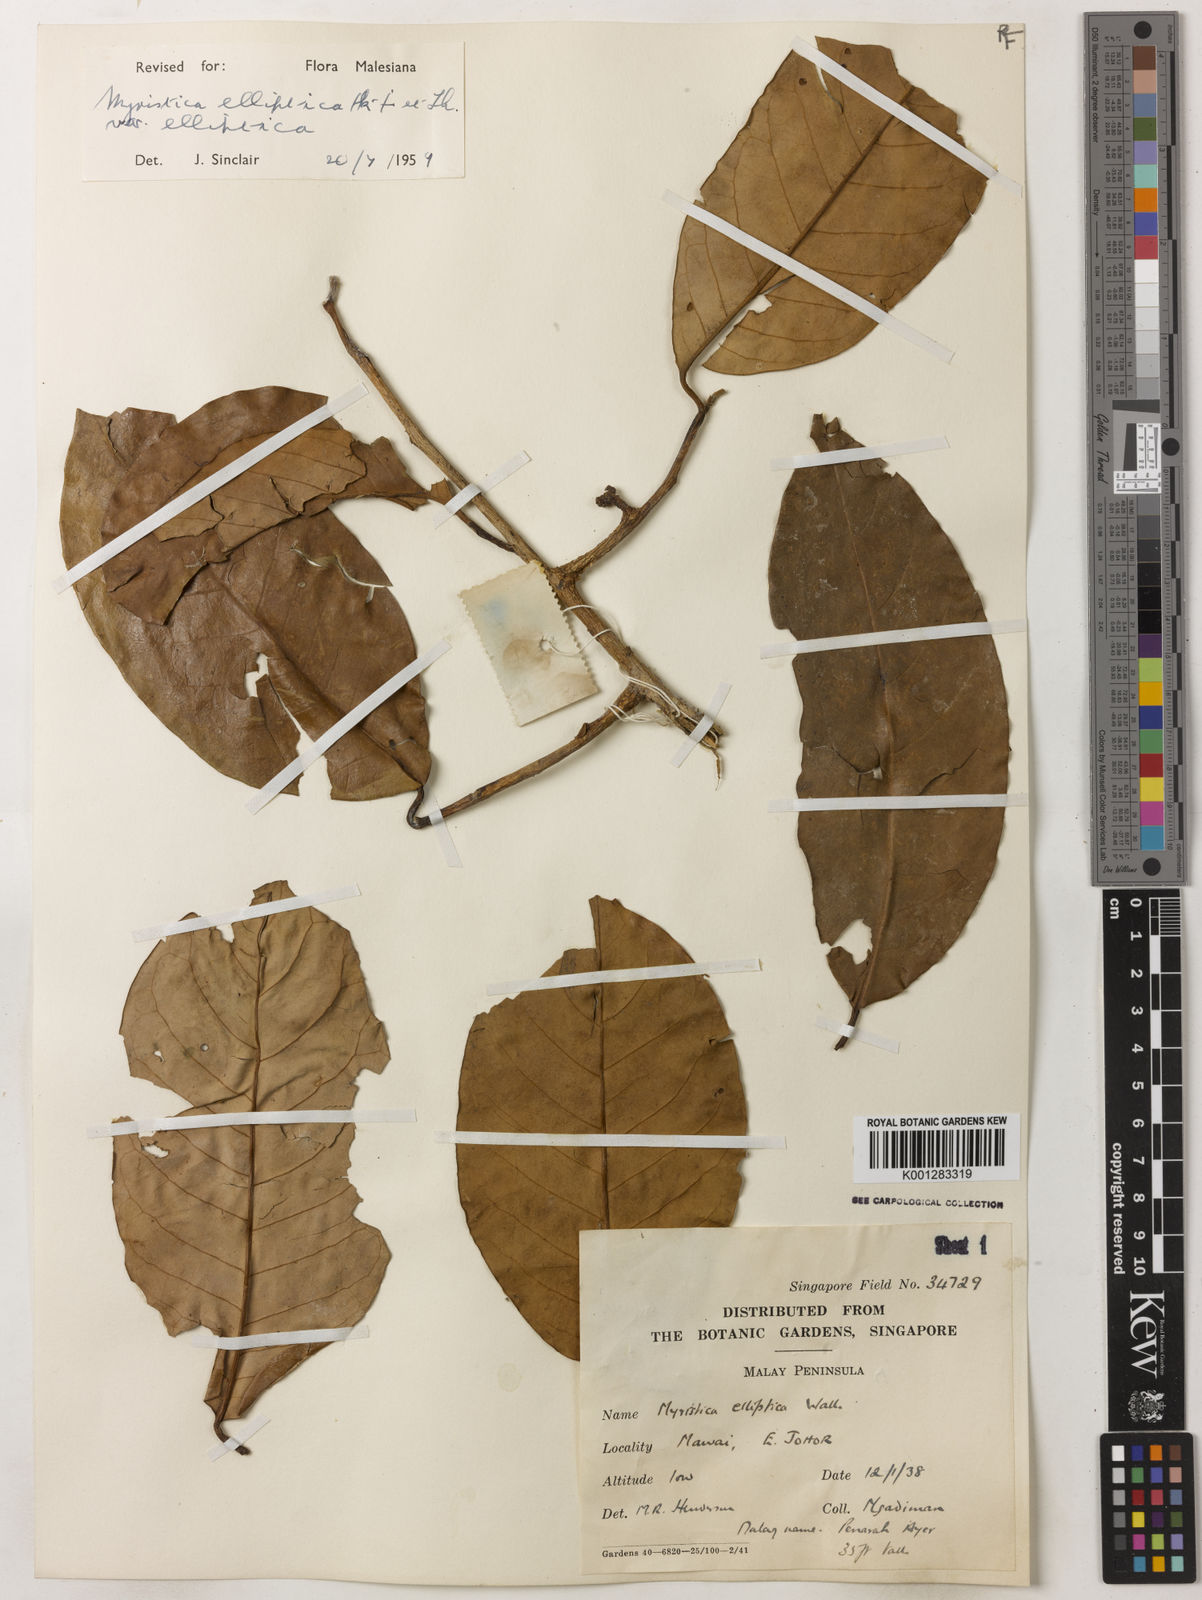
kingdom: Plantae
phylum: Tracheophyta
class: Magnoliopsida
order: Magnoliales
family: Myristicaceae
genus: Myristica
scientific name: Myristica elliptica
